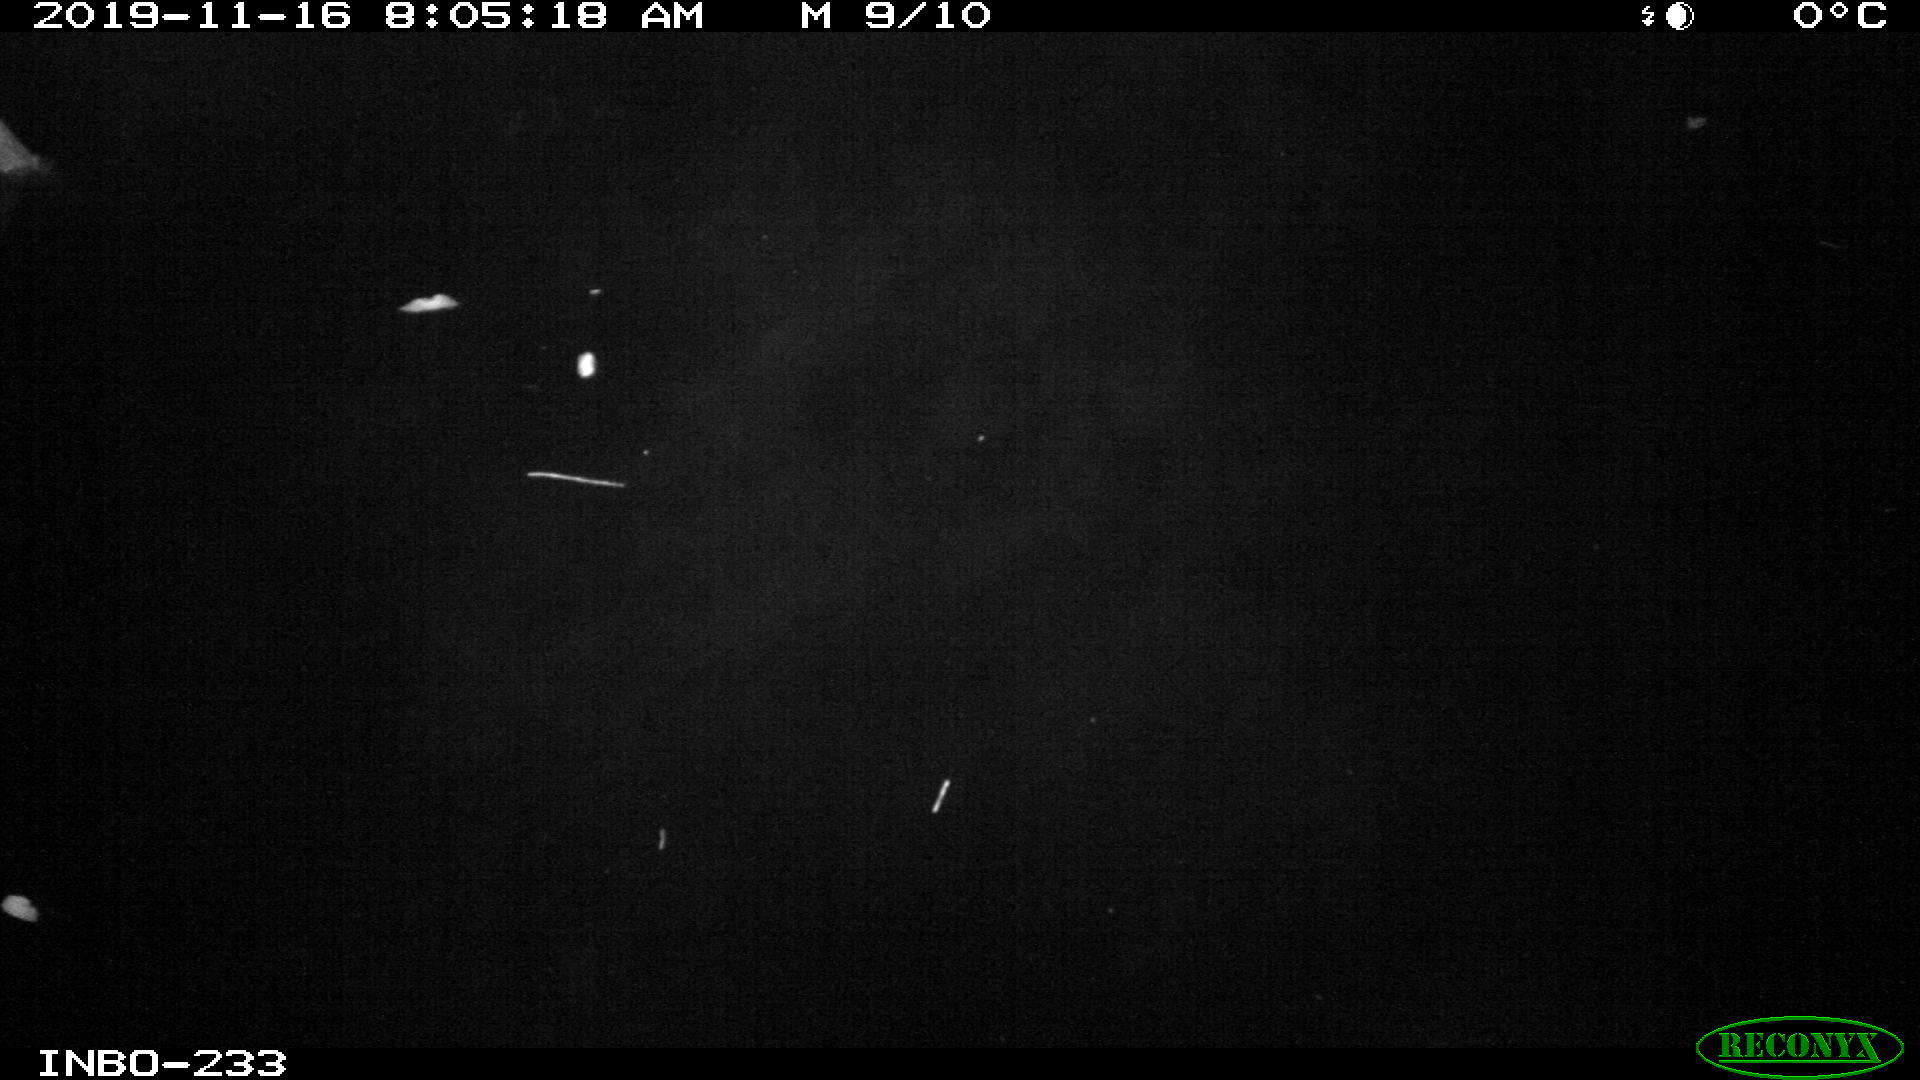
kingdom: Animalia
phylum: Chordata
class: Aves
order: Gruiformes
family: Rallidae
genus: Gallinula
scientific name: Gallinula chloropus
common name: Common moorhen
